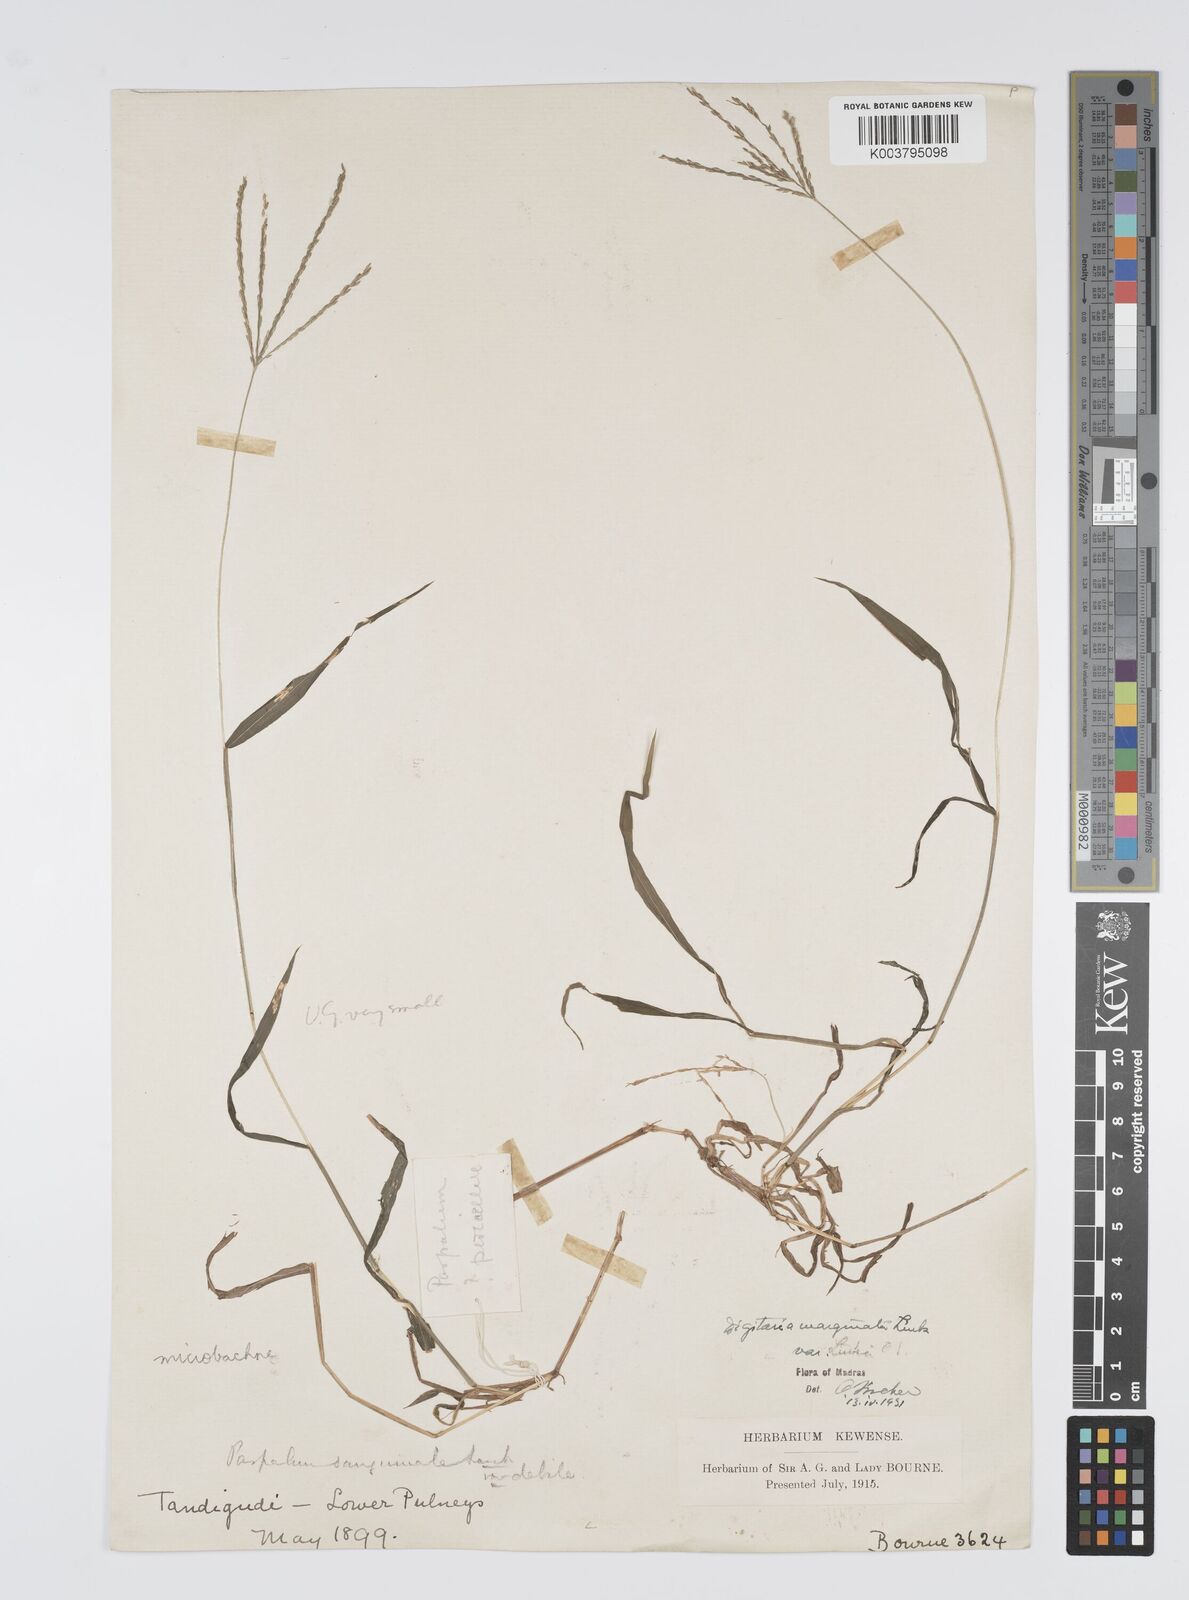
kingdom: Plantae
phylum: Tracheophyta
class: Liliopsida
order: Poales
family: Poaceae
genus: Digitaria
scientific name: Digitaria setigera
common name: East indian crabgrass
